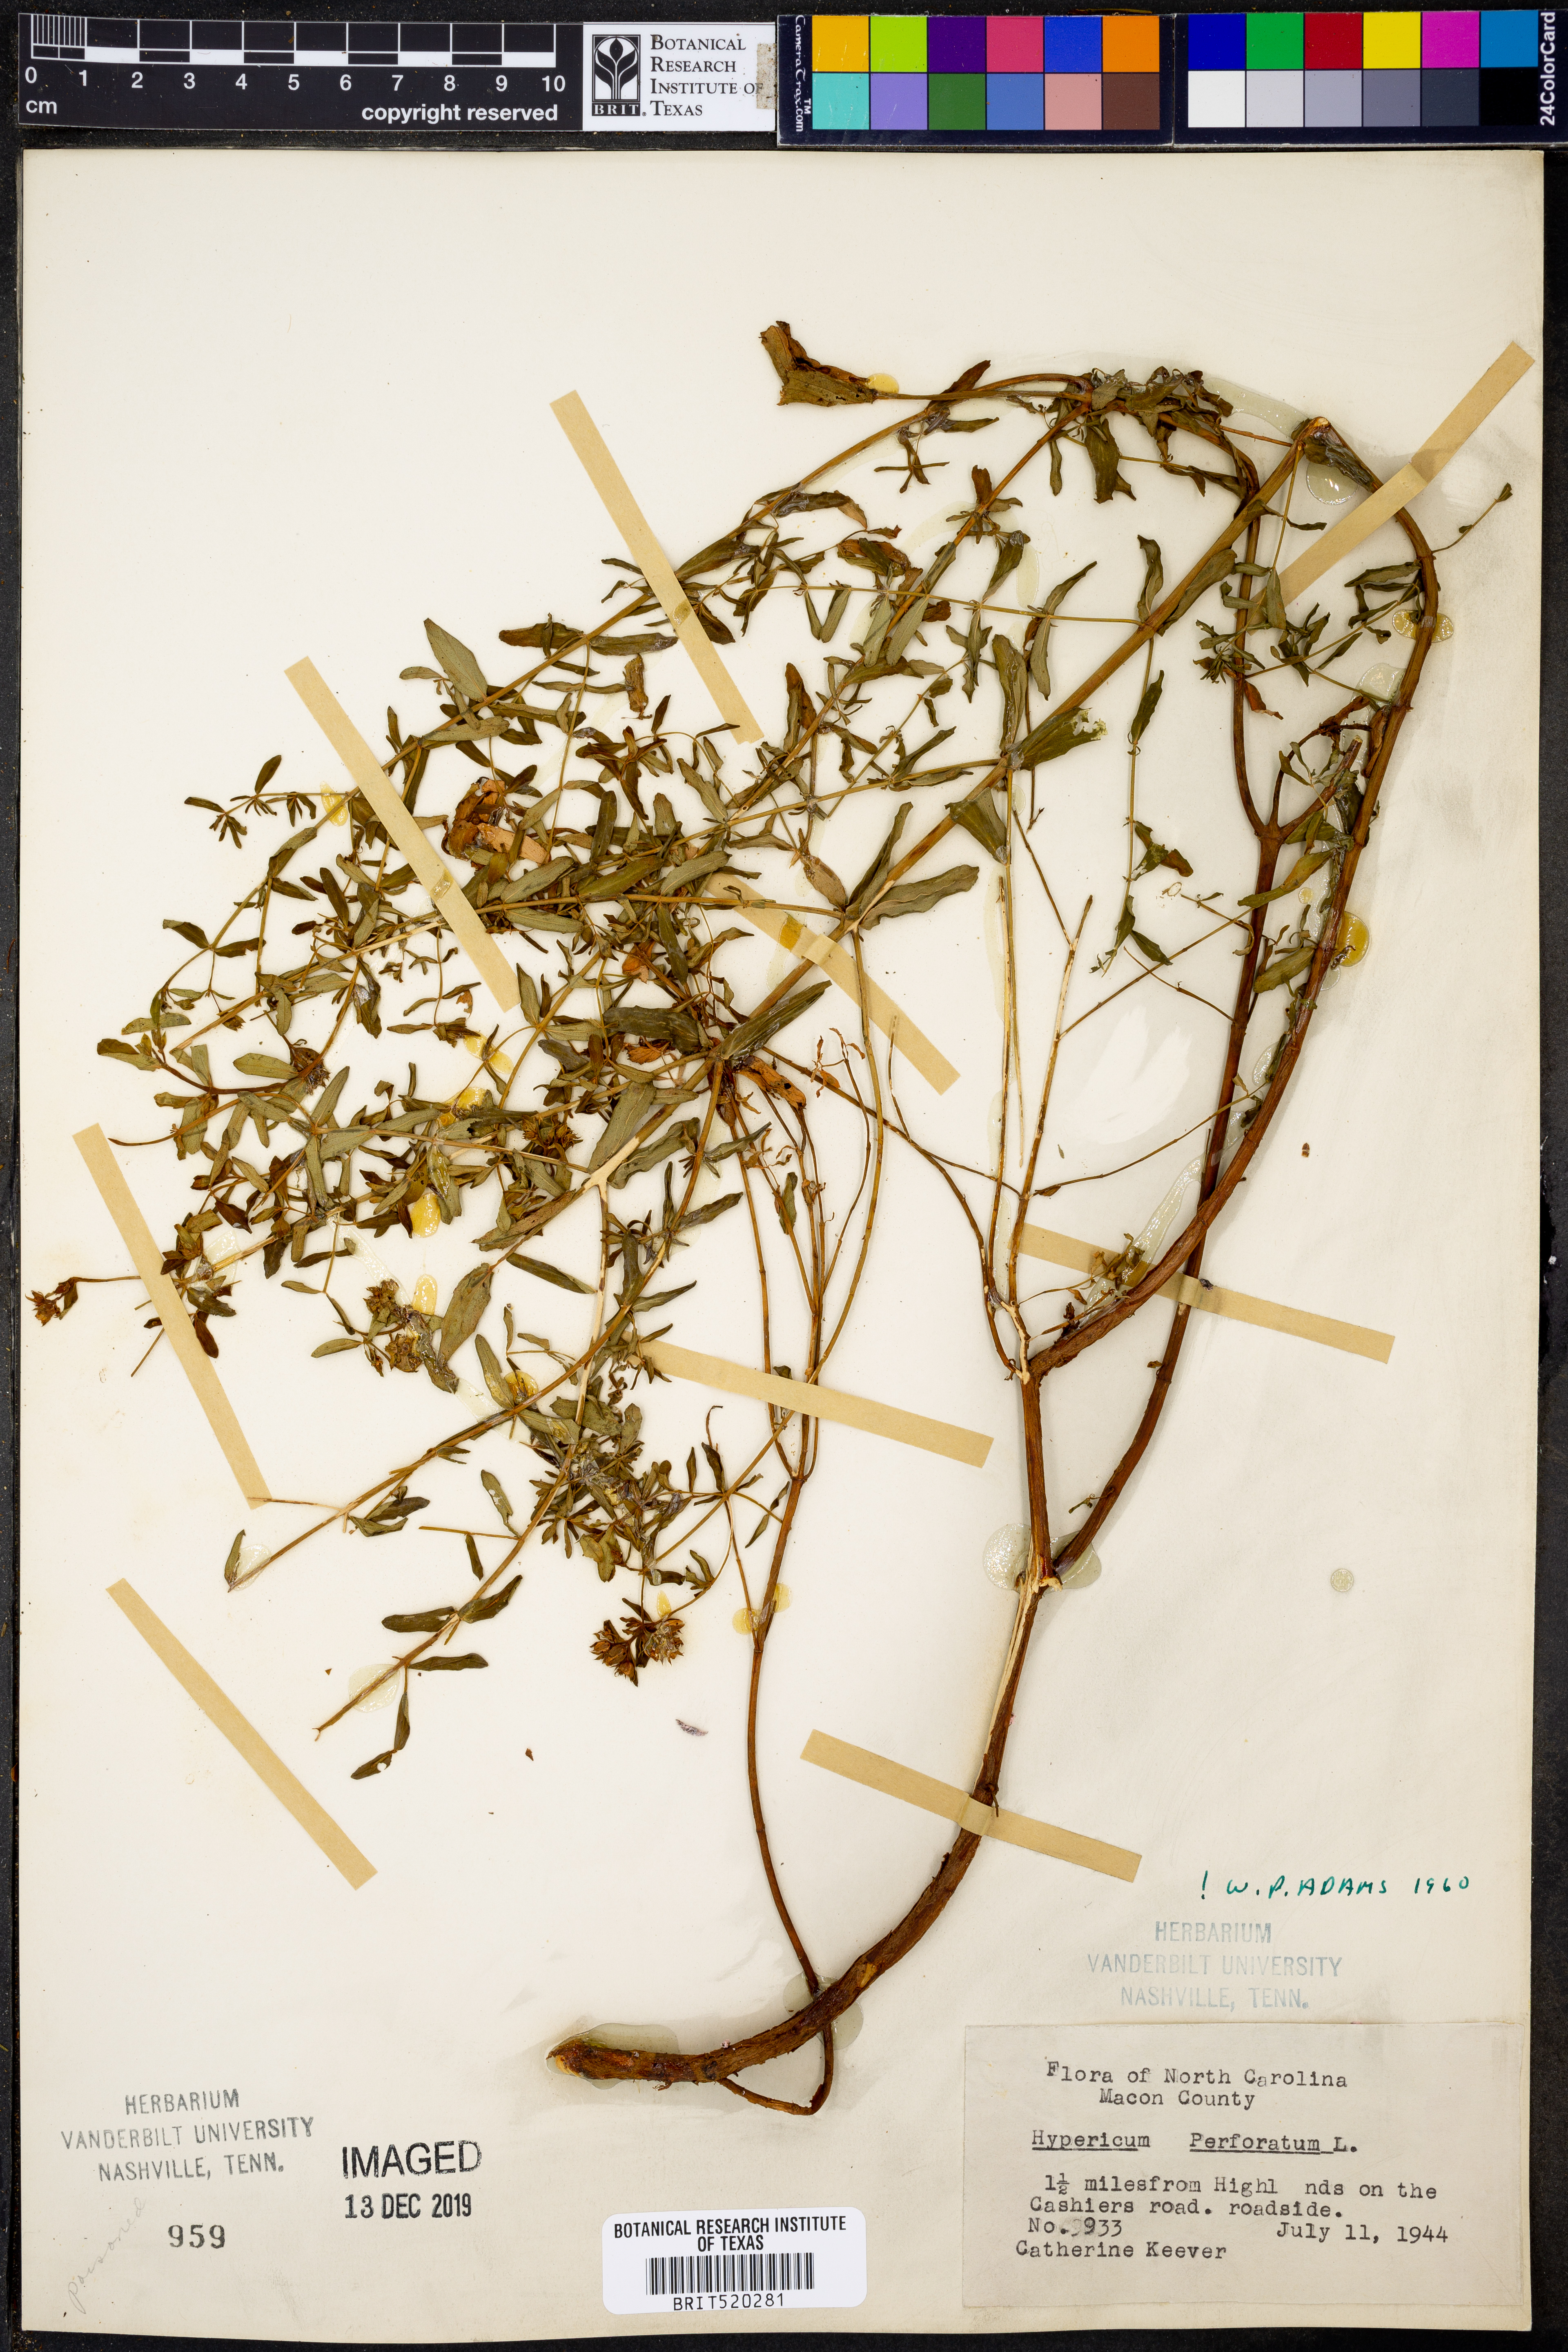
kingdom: Plantae
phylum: Tracheophyta
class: Magnoliopsida
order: Malpighiales
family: Hypericaceae
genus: Hypericum
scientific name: Hypericum perforatum
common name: Common st. johnswort
